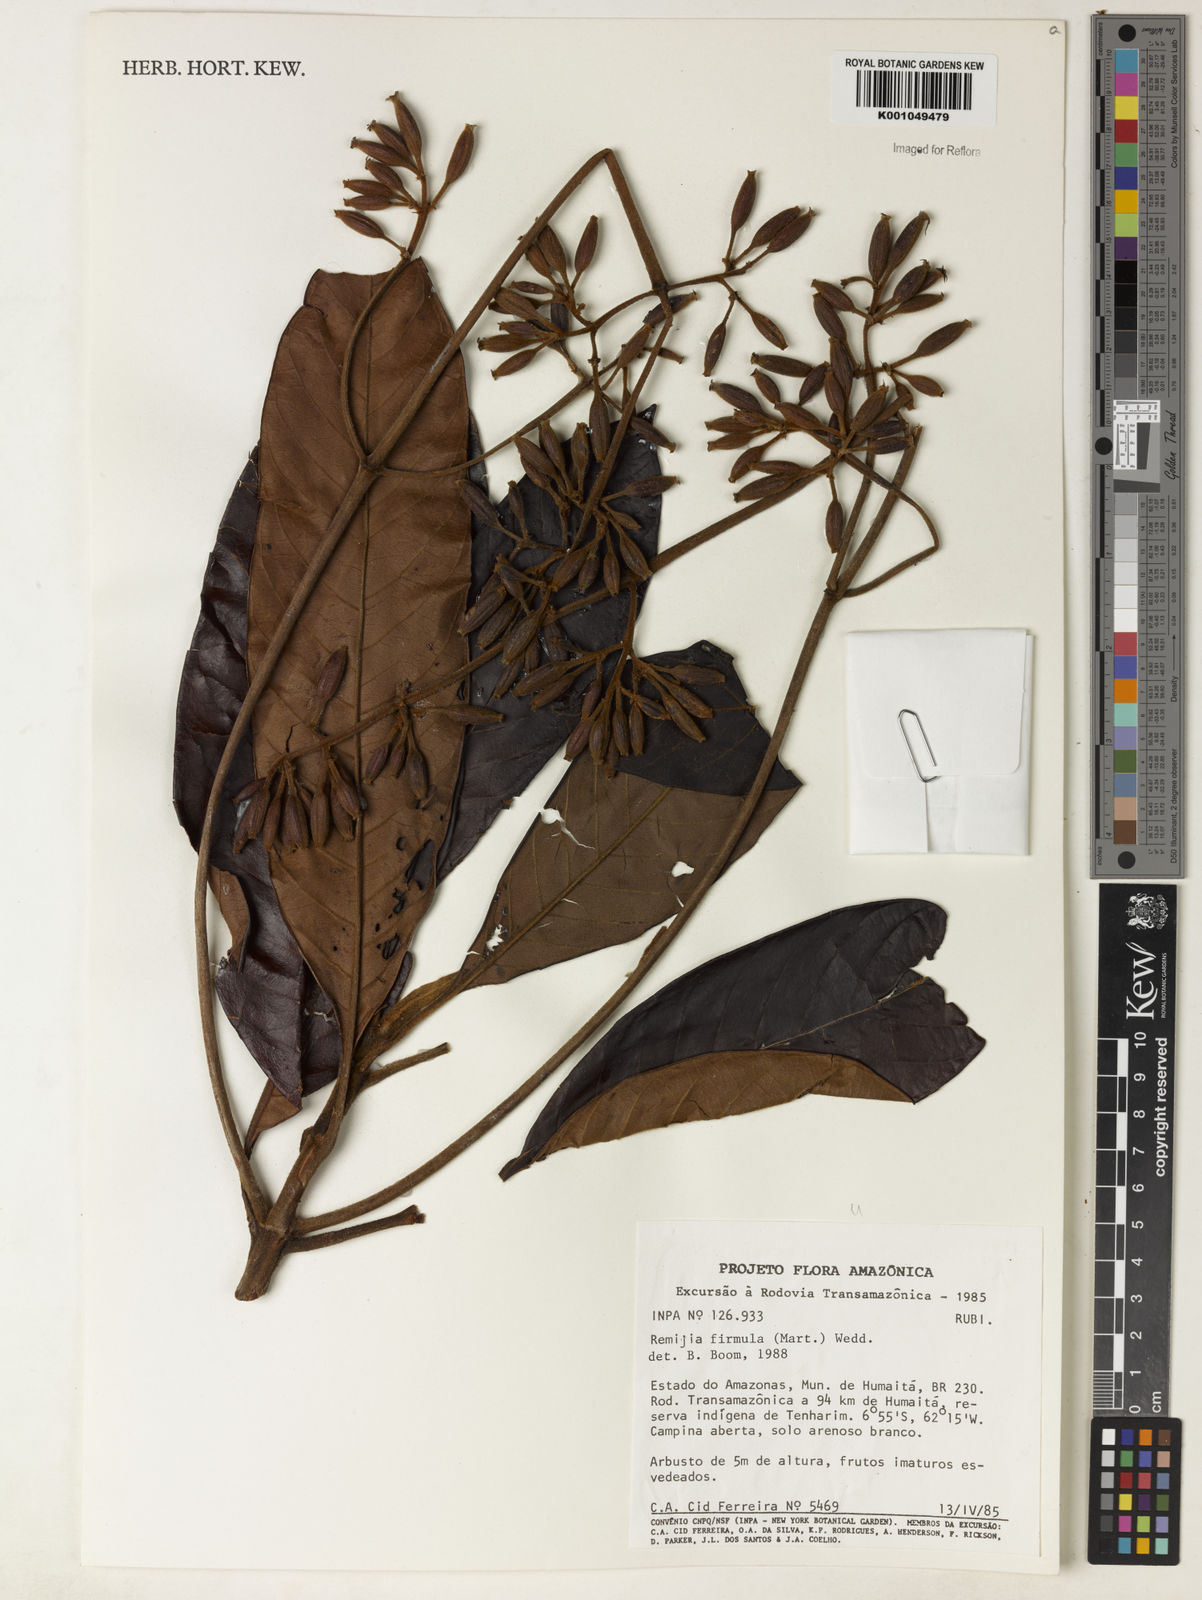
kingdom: Plantae
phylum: Tracheophyta
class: Magnoliopsida
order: Gentianales
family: Rubiaceae
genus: Remijia
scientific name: Remijia firmula
